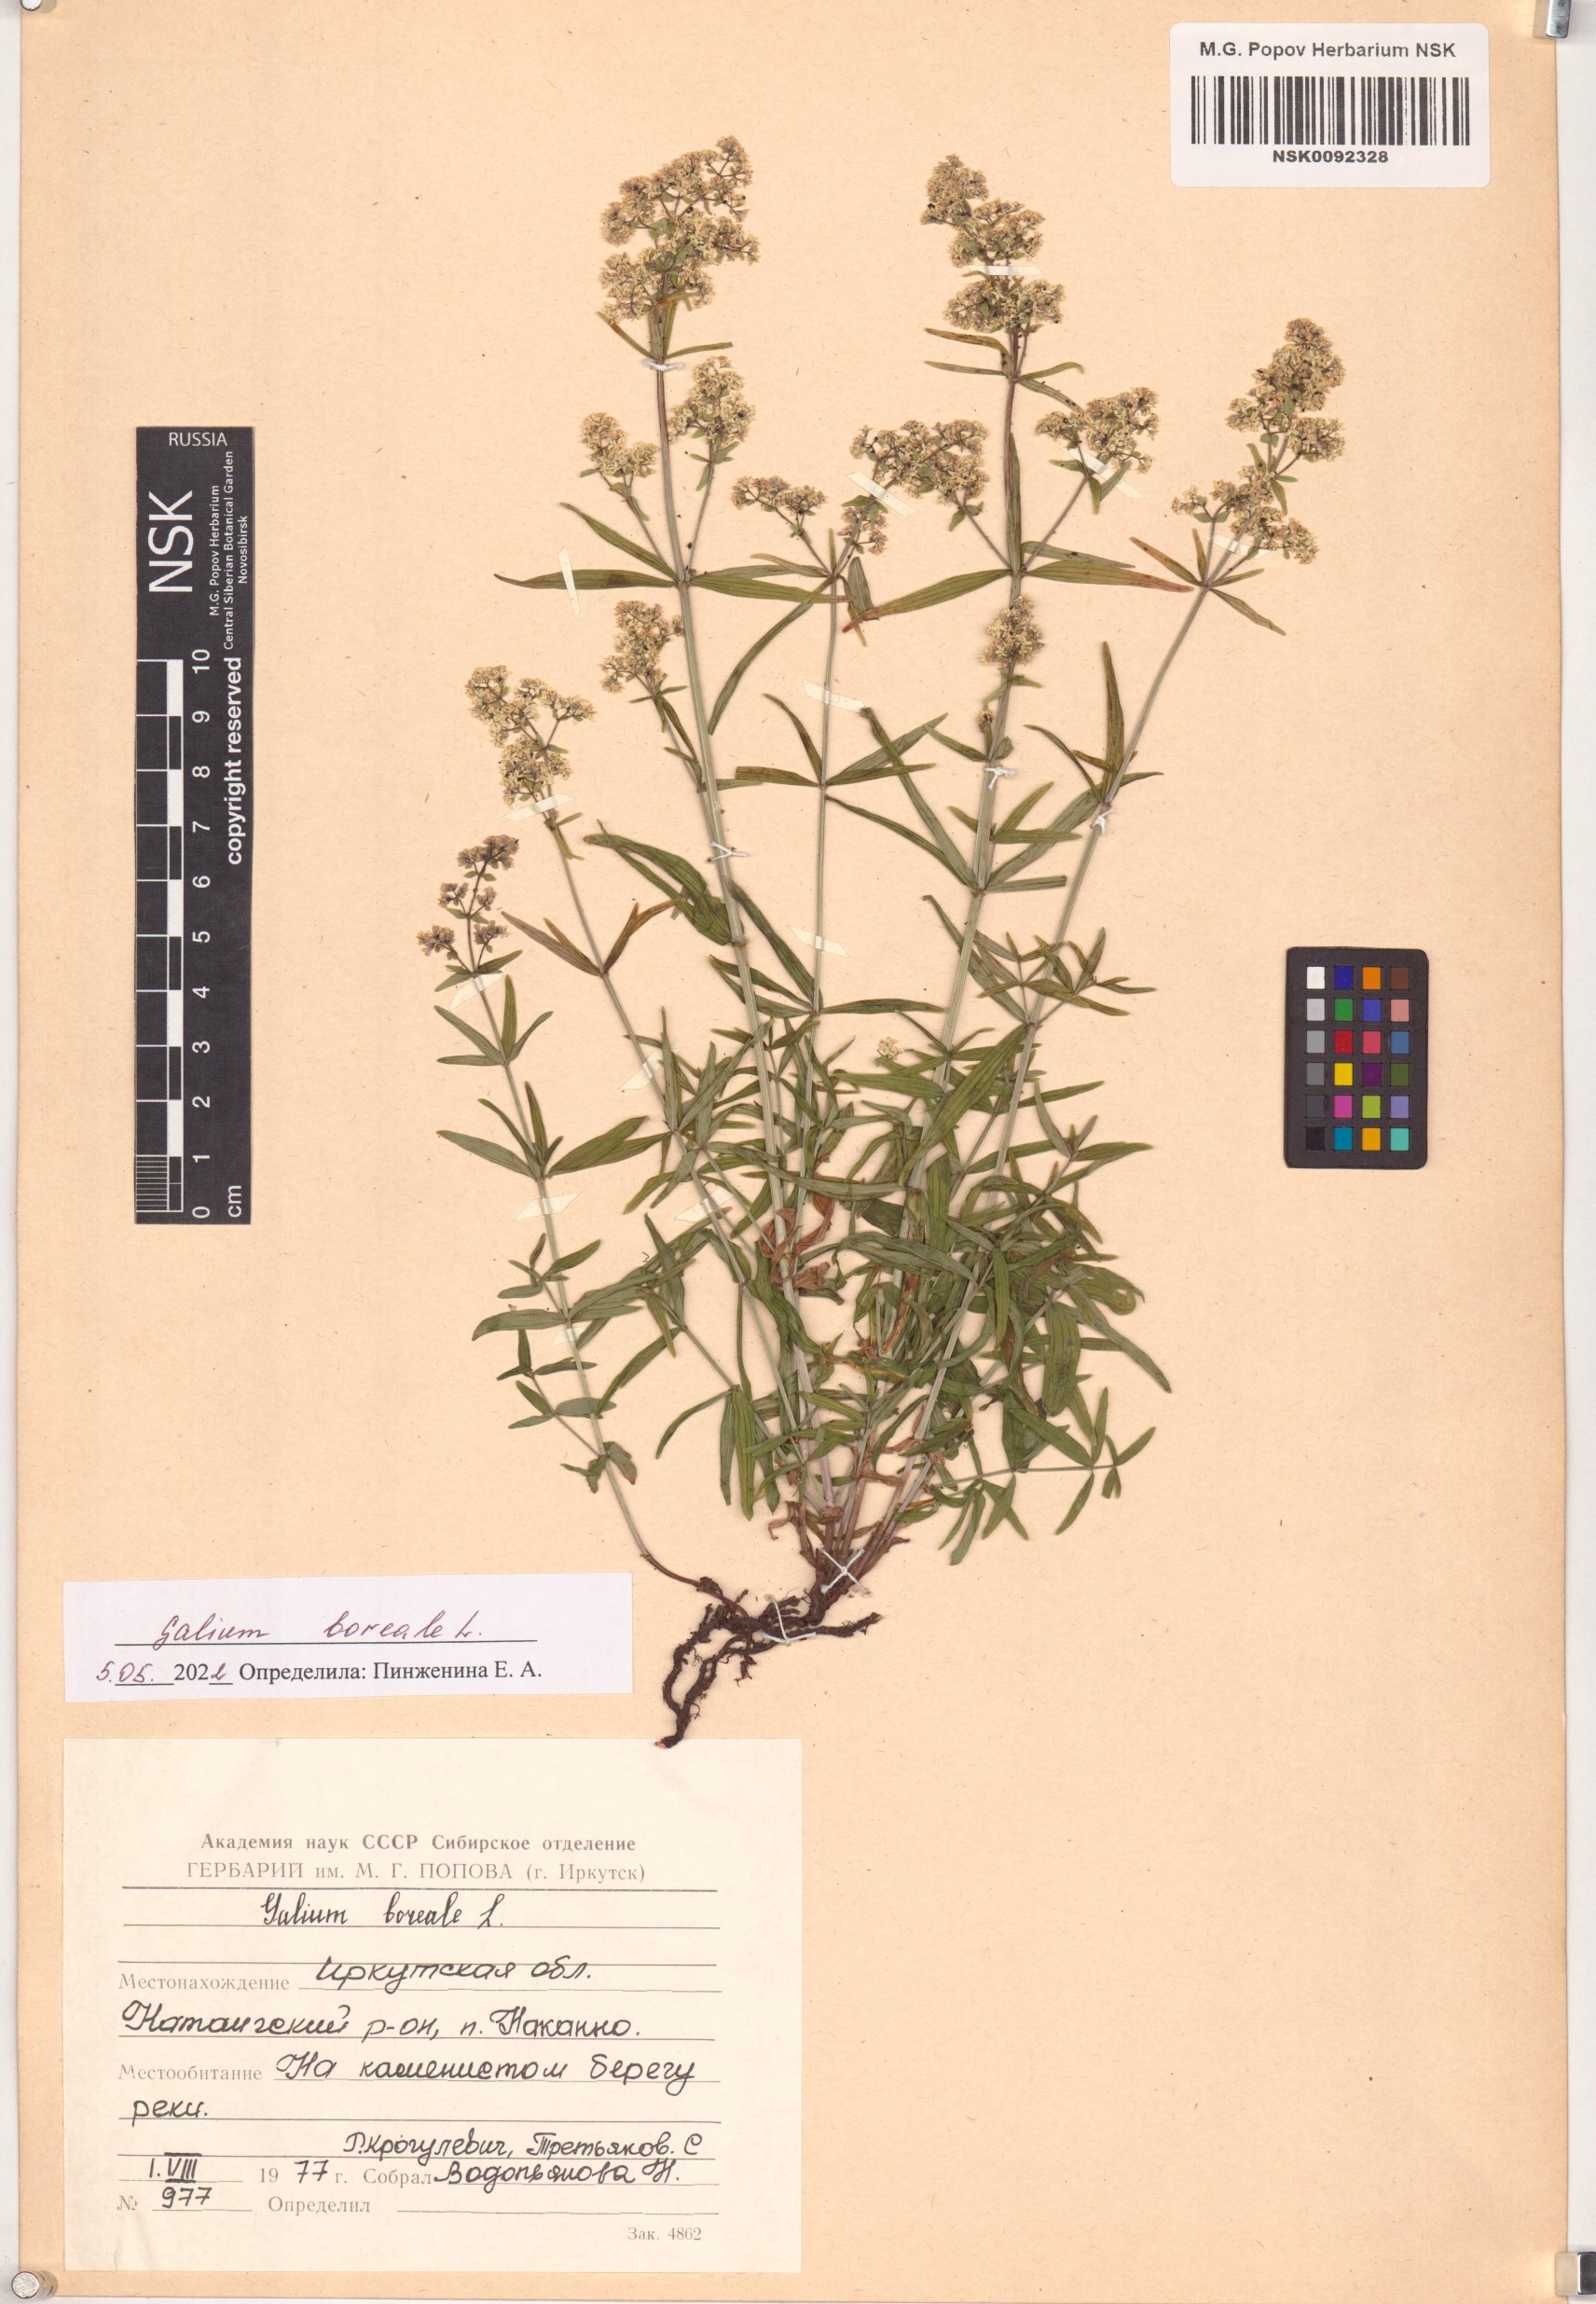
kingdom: Plantae
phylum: Tracheophyta
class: Magnoliopsida
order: Gentianales
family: Rubiaceae
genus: Galium
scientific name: Galium boreale
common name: Northern bedstraw
